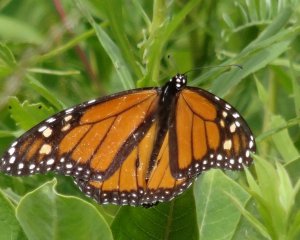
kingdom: Animalia
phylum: Arthropoda
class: Insecta
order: Lepidoptera
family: Nymphalidae
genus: Danaus
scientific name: Danaus plexippus
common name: Monarch
